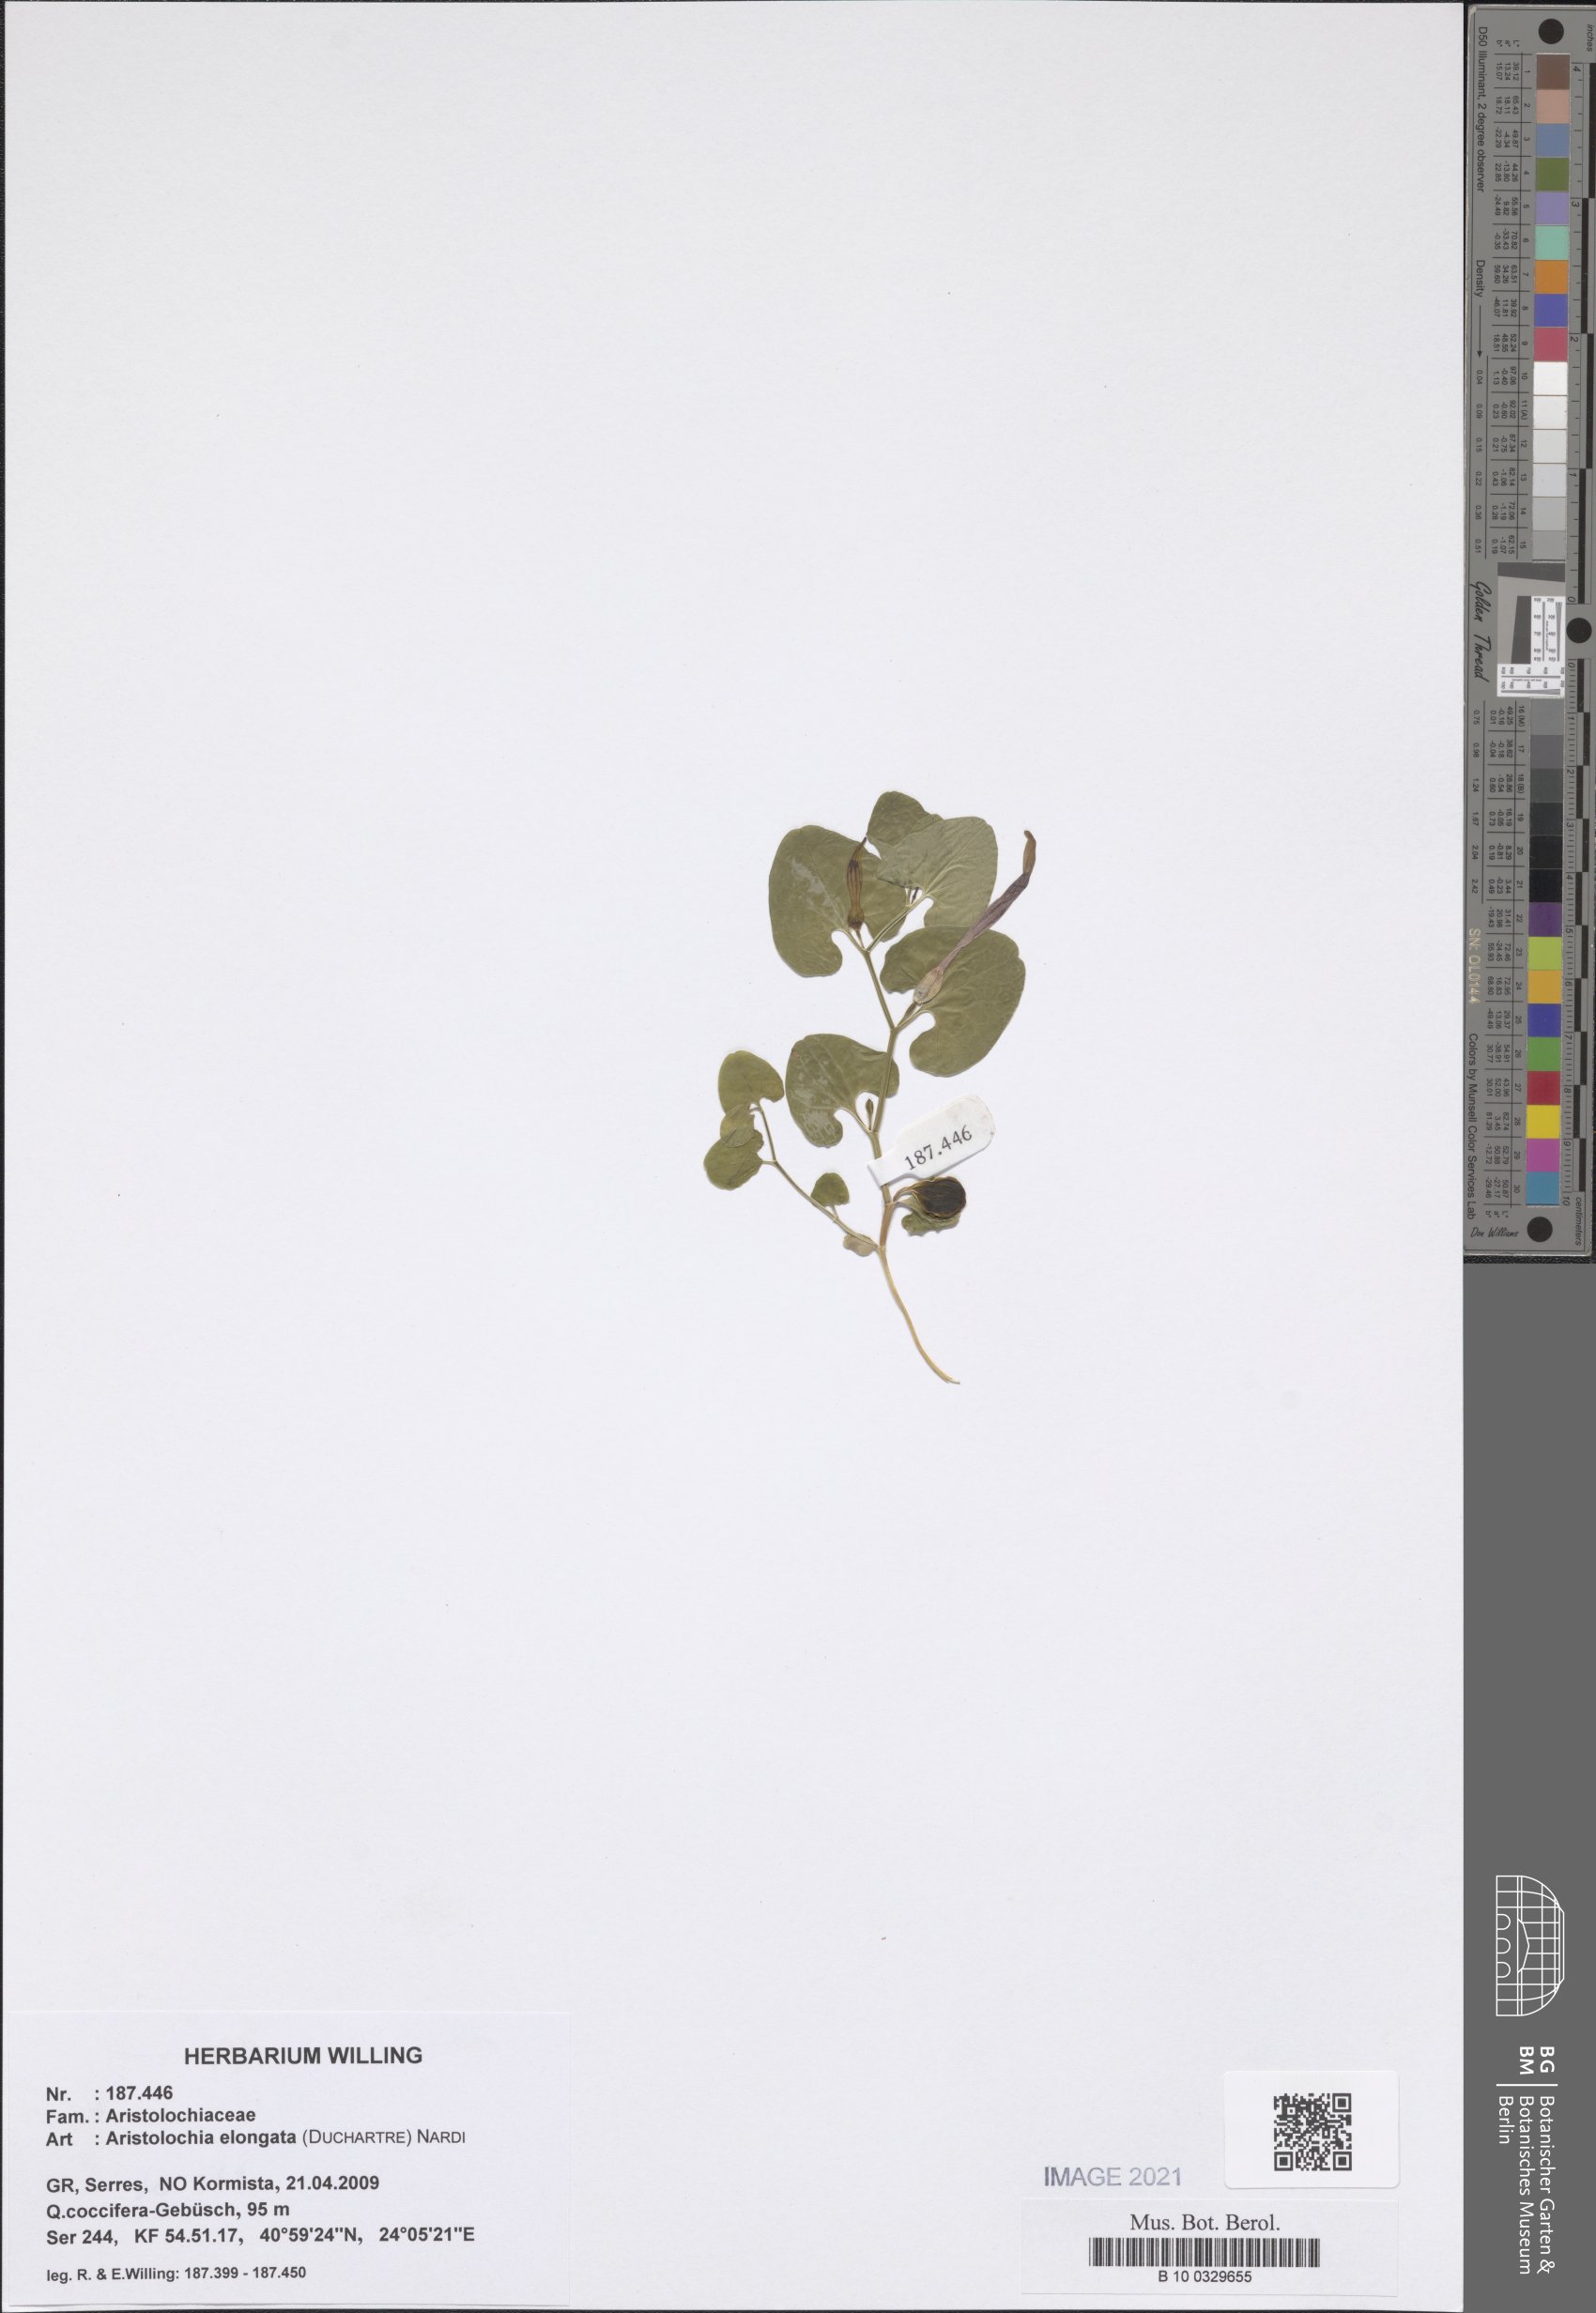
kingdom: Plantae
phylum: Tracheophyta
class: Magnoliopsida
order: Piperales
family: Aristolochiaceae
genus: Aristolochia
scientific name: Aristolochia nardiana
